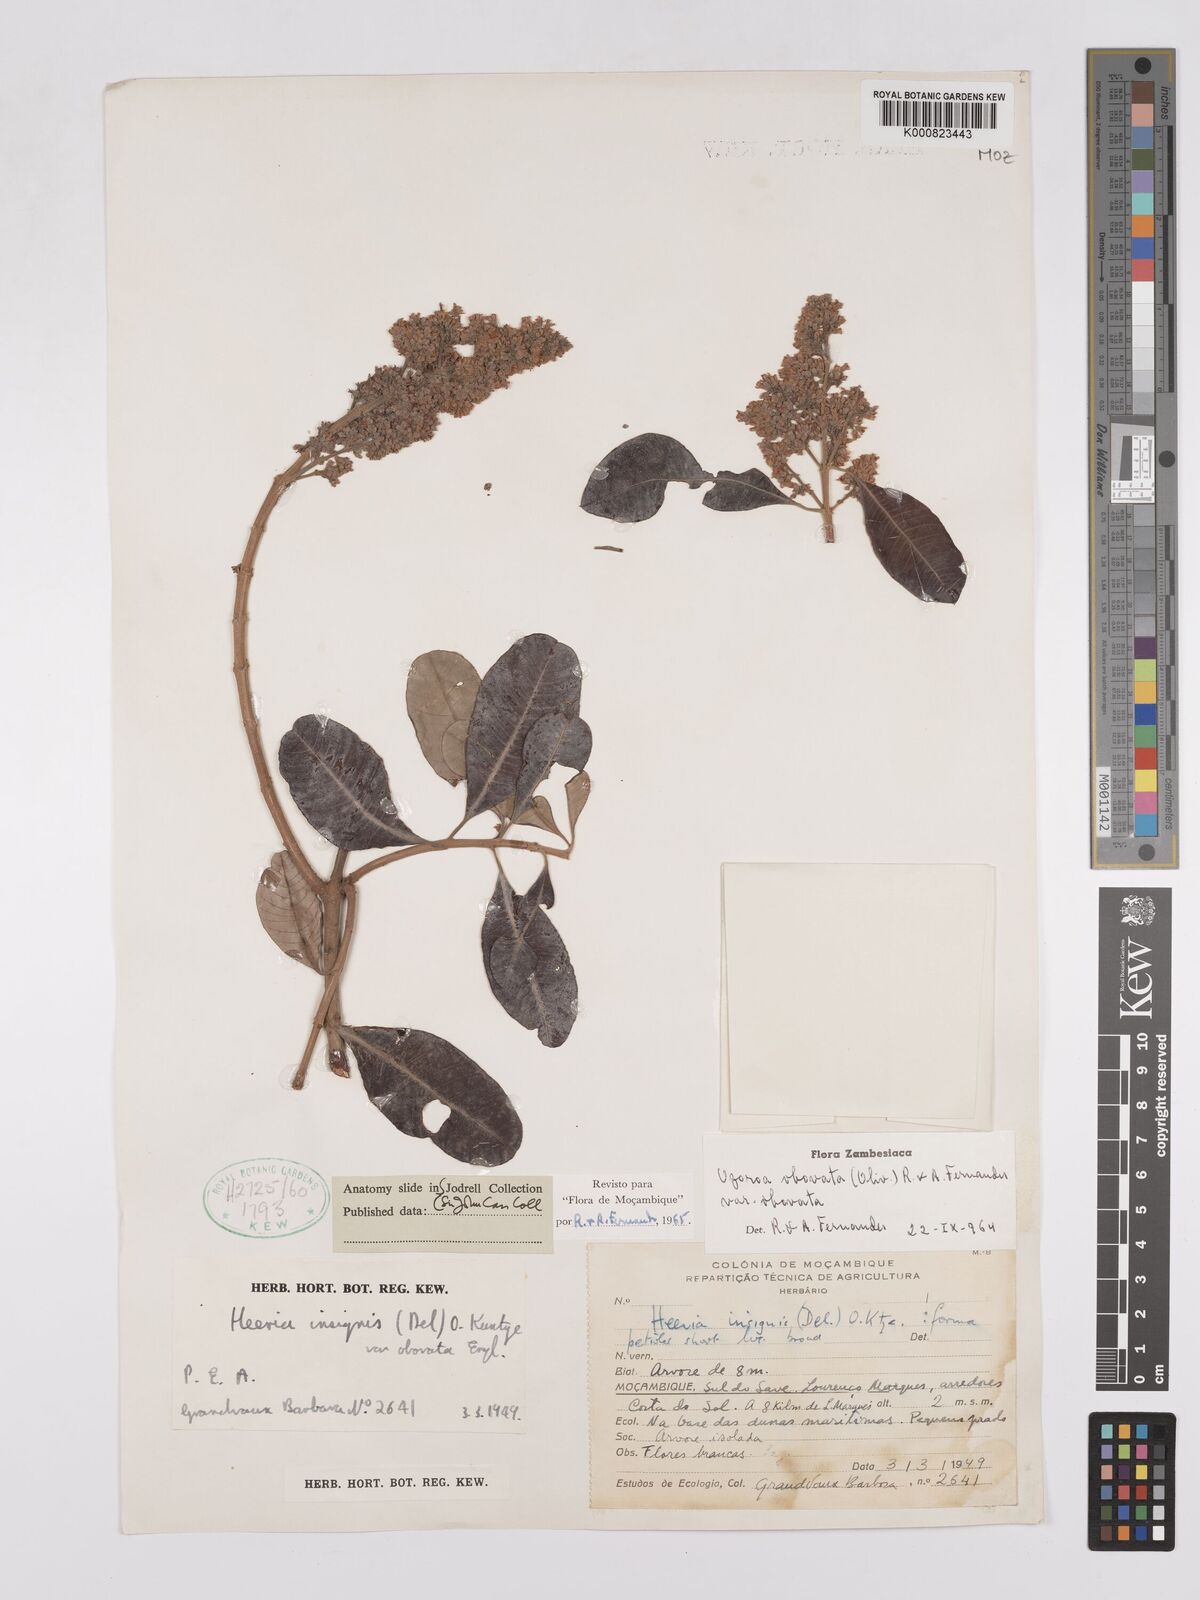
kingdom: Plantae
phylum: Tracheophyta
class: Magnoliopsida
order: Sapindales
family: Anacardiaceae
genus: Ozoroa
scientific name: Ozoroa obovata
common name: Broad-leaved resin tree
